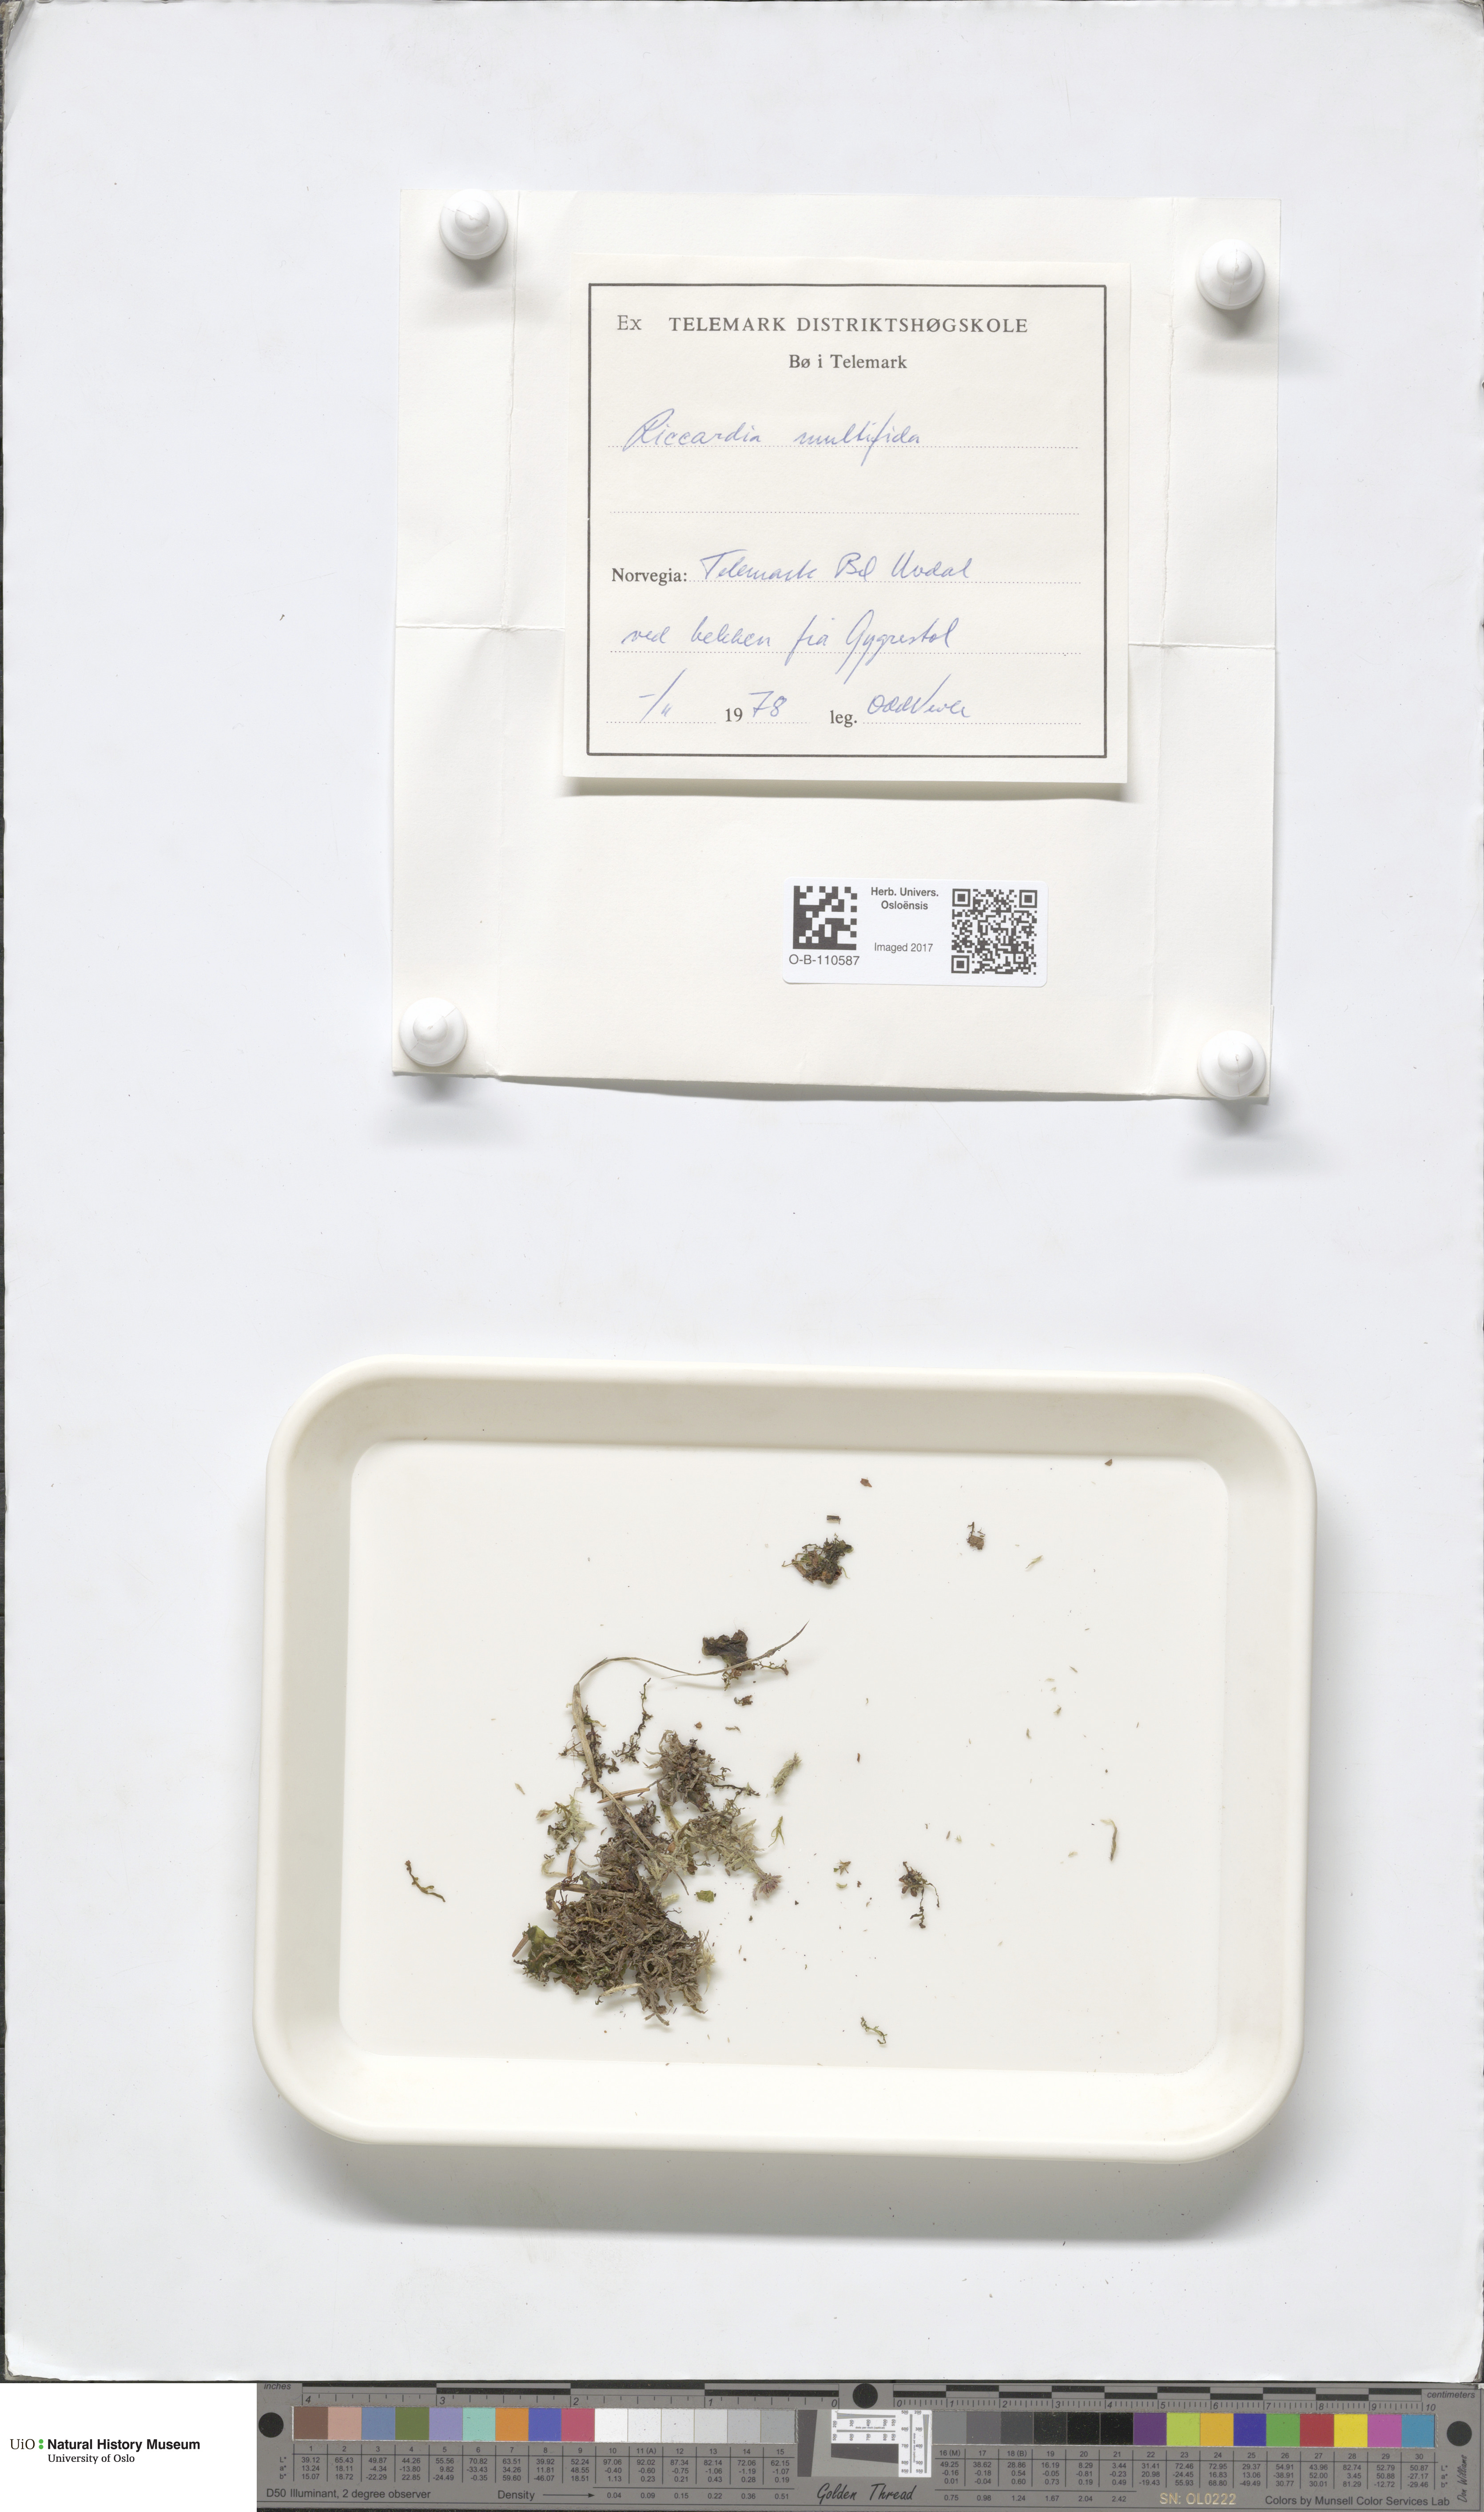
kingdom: Plantae
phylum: Marchantiophyta
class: Jungermanniopsida
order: Metzgeriales
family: Aneuraceae
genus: Riccardia
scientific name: Riccardia multifida
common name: Delicate germanderwort
